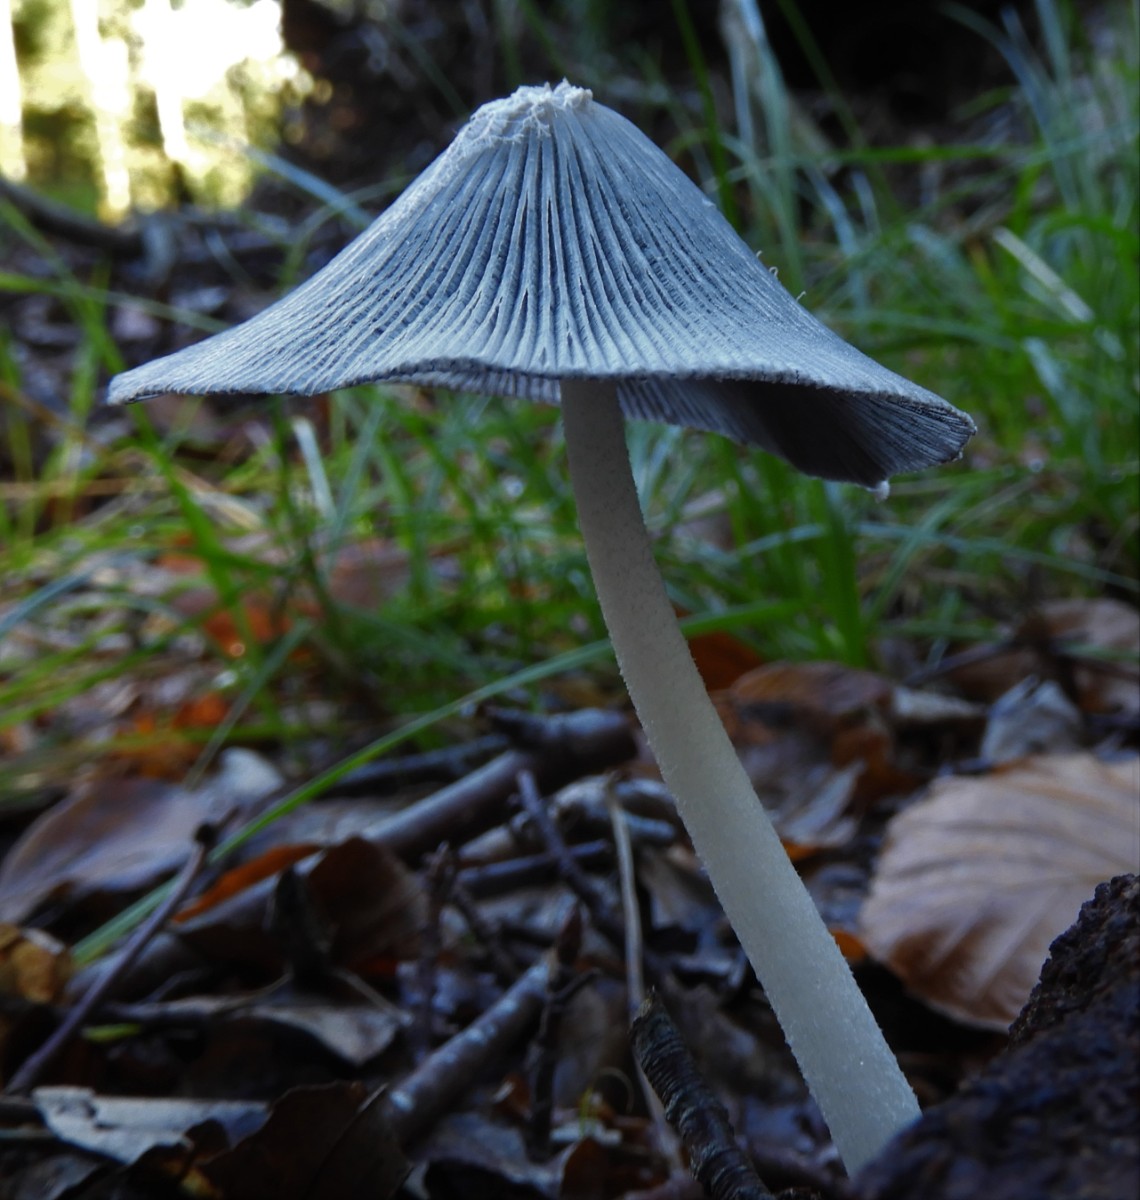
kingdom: Fungi
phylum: Basidiomycota
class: Agaricomycetes
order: Agaricales
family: Psathyrellaceae
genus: Coprinopsis
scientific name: Coprinopsis lagopus
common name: dunstokket blækhat
